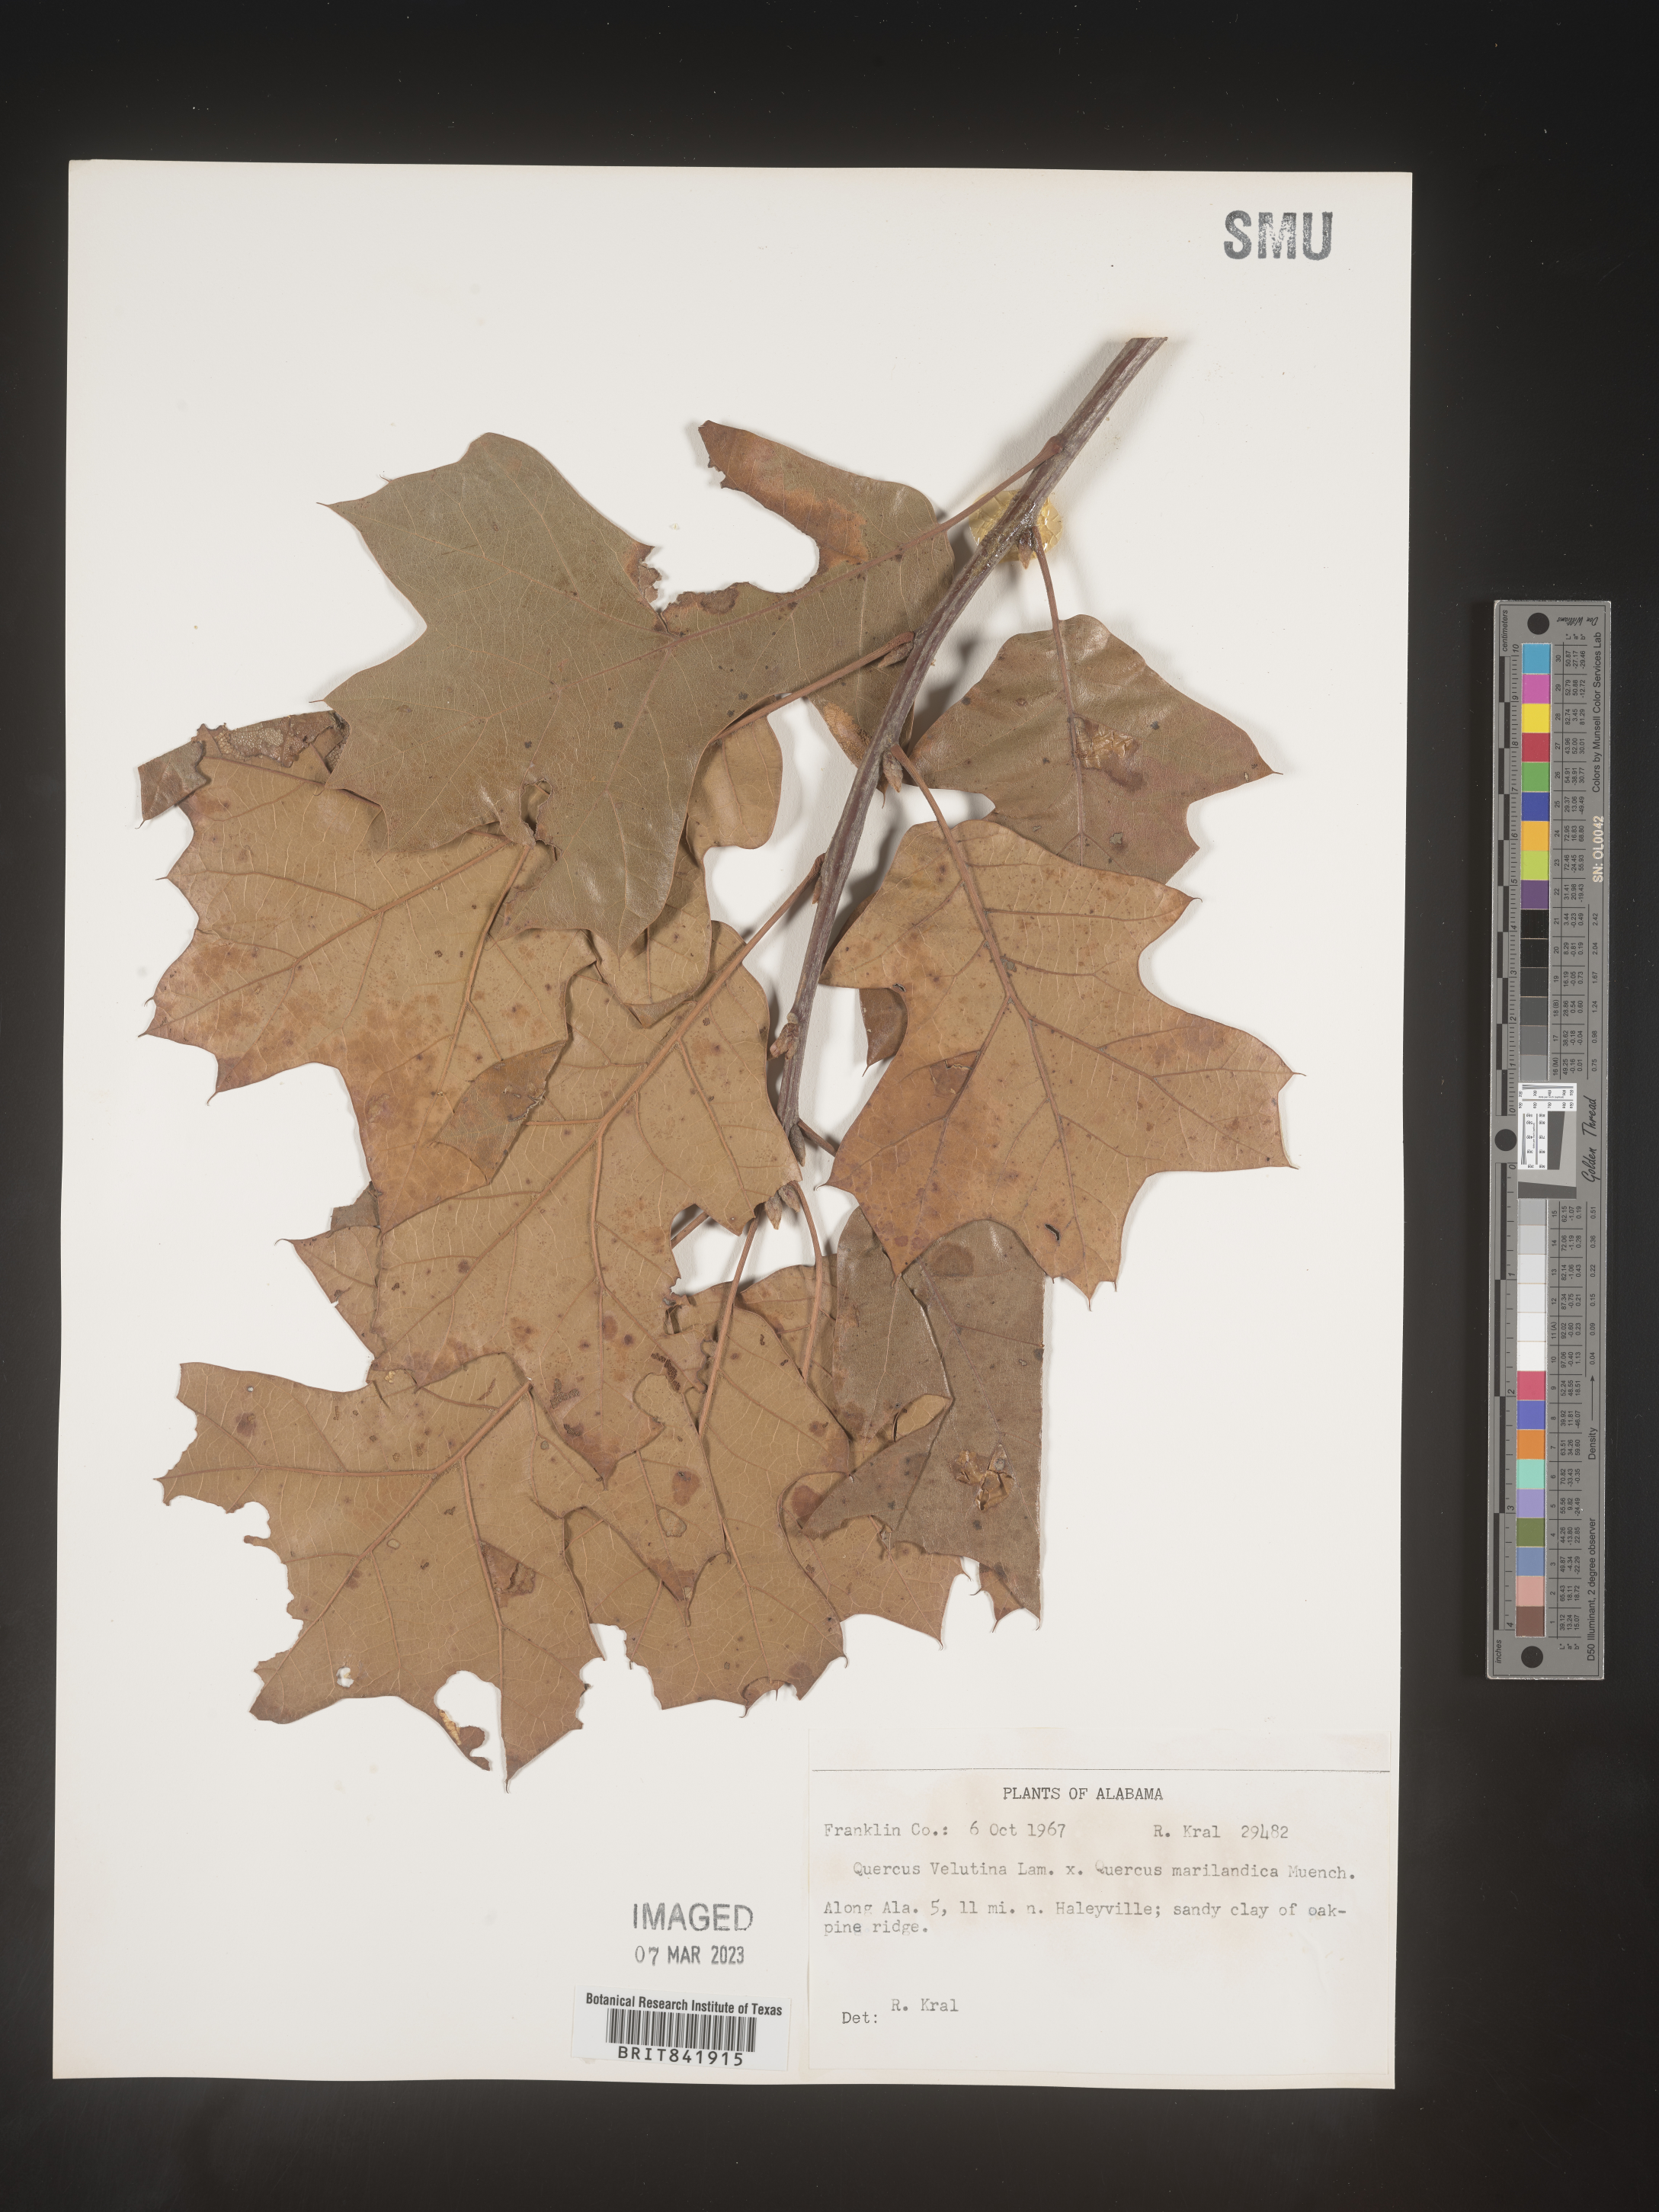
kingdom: Plantae
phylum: Tracheophyta
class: Magnoliopsida
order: Fagales
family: Fagaceae
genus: Quercus
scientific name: Quercus velutina
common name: Black oak
